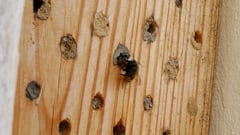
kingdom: Animalia
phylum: Arthropoda
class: Insecta
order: Hymenoptera
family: Megachilidae
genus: Osmia
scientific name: Osmia cornuta
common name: Mason bee
